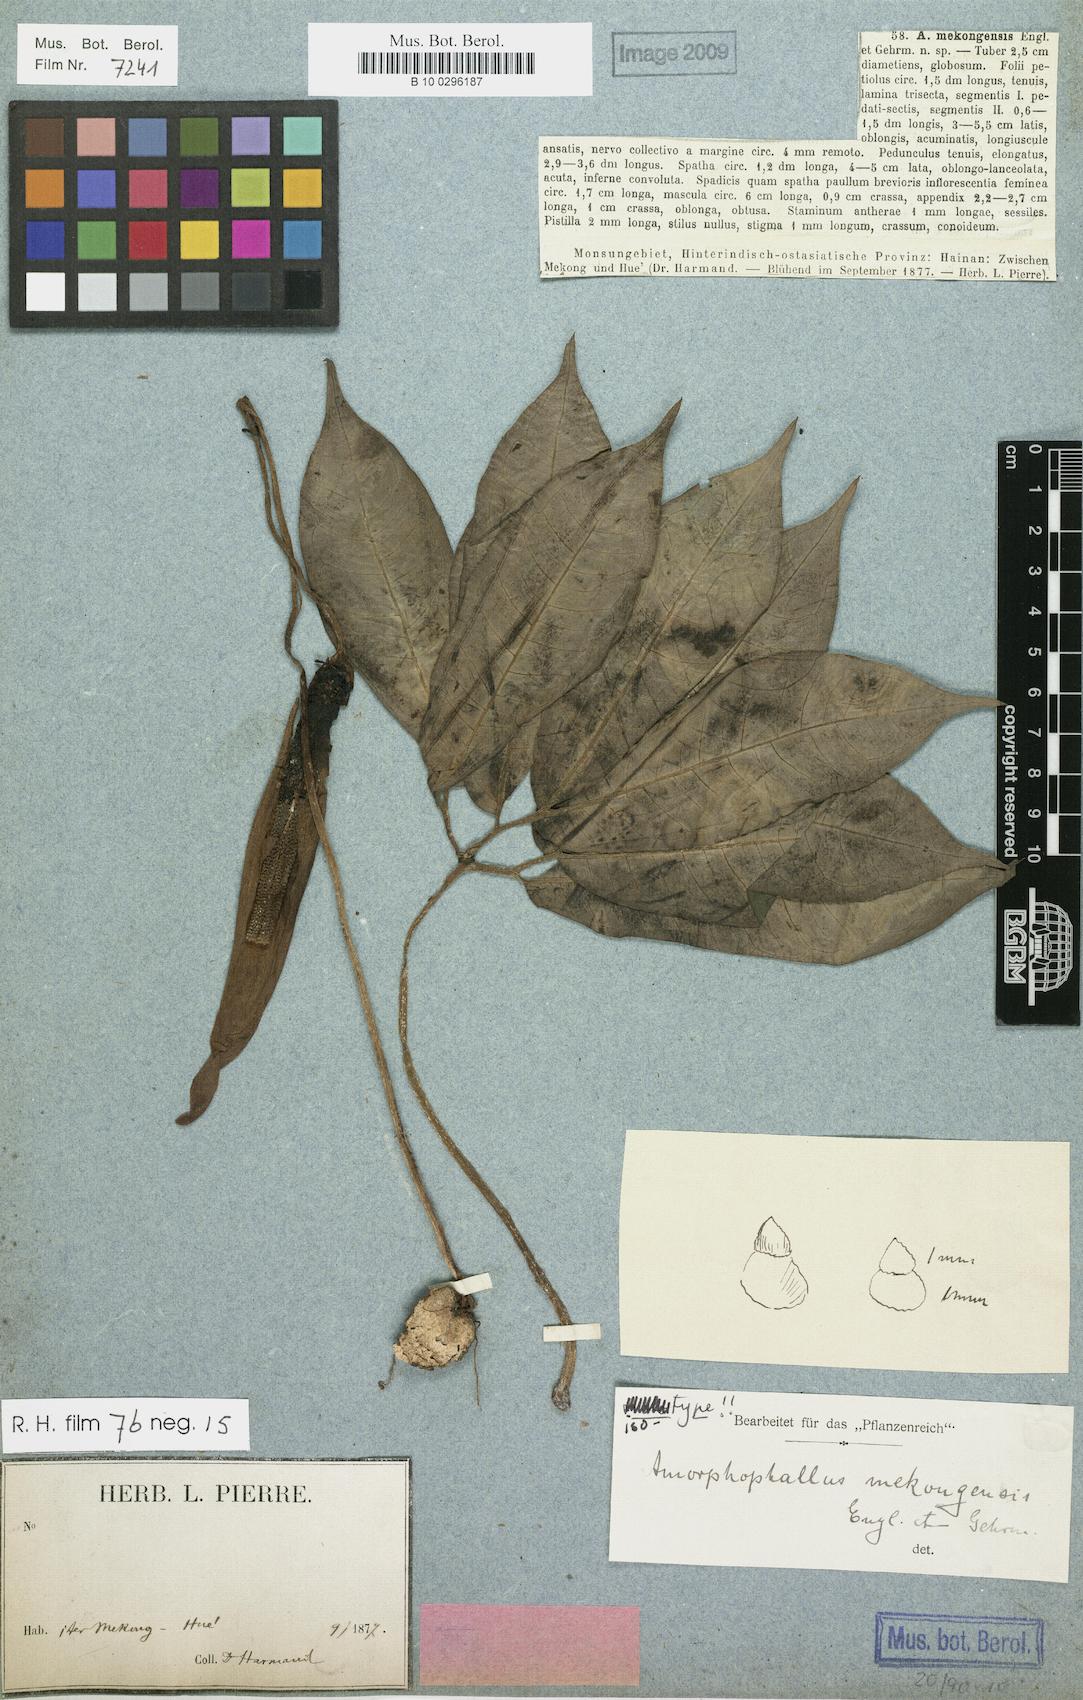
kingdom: Plantae
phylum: Tracheophyta
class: Liliopsida
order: Alismatales
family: Araceae
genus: Amorphophallus
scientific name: Amorphophallus mekongensis
